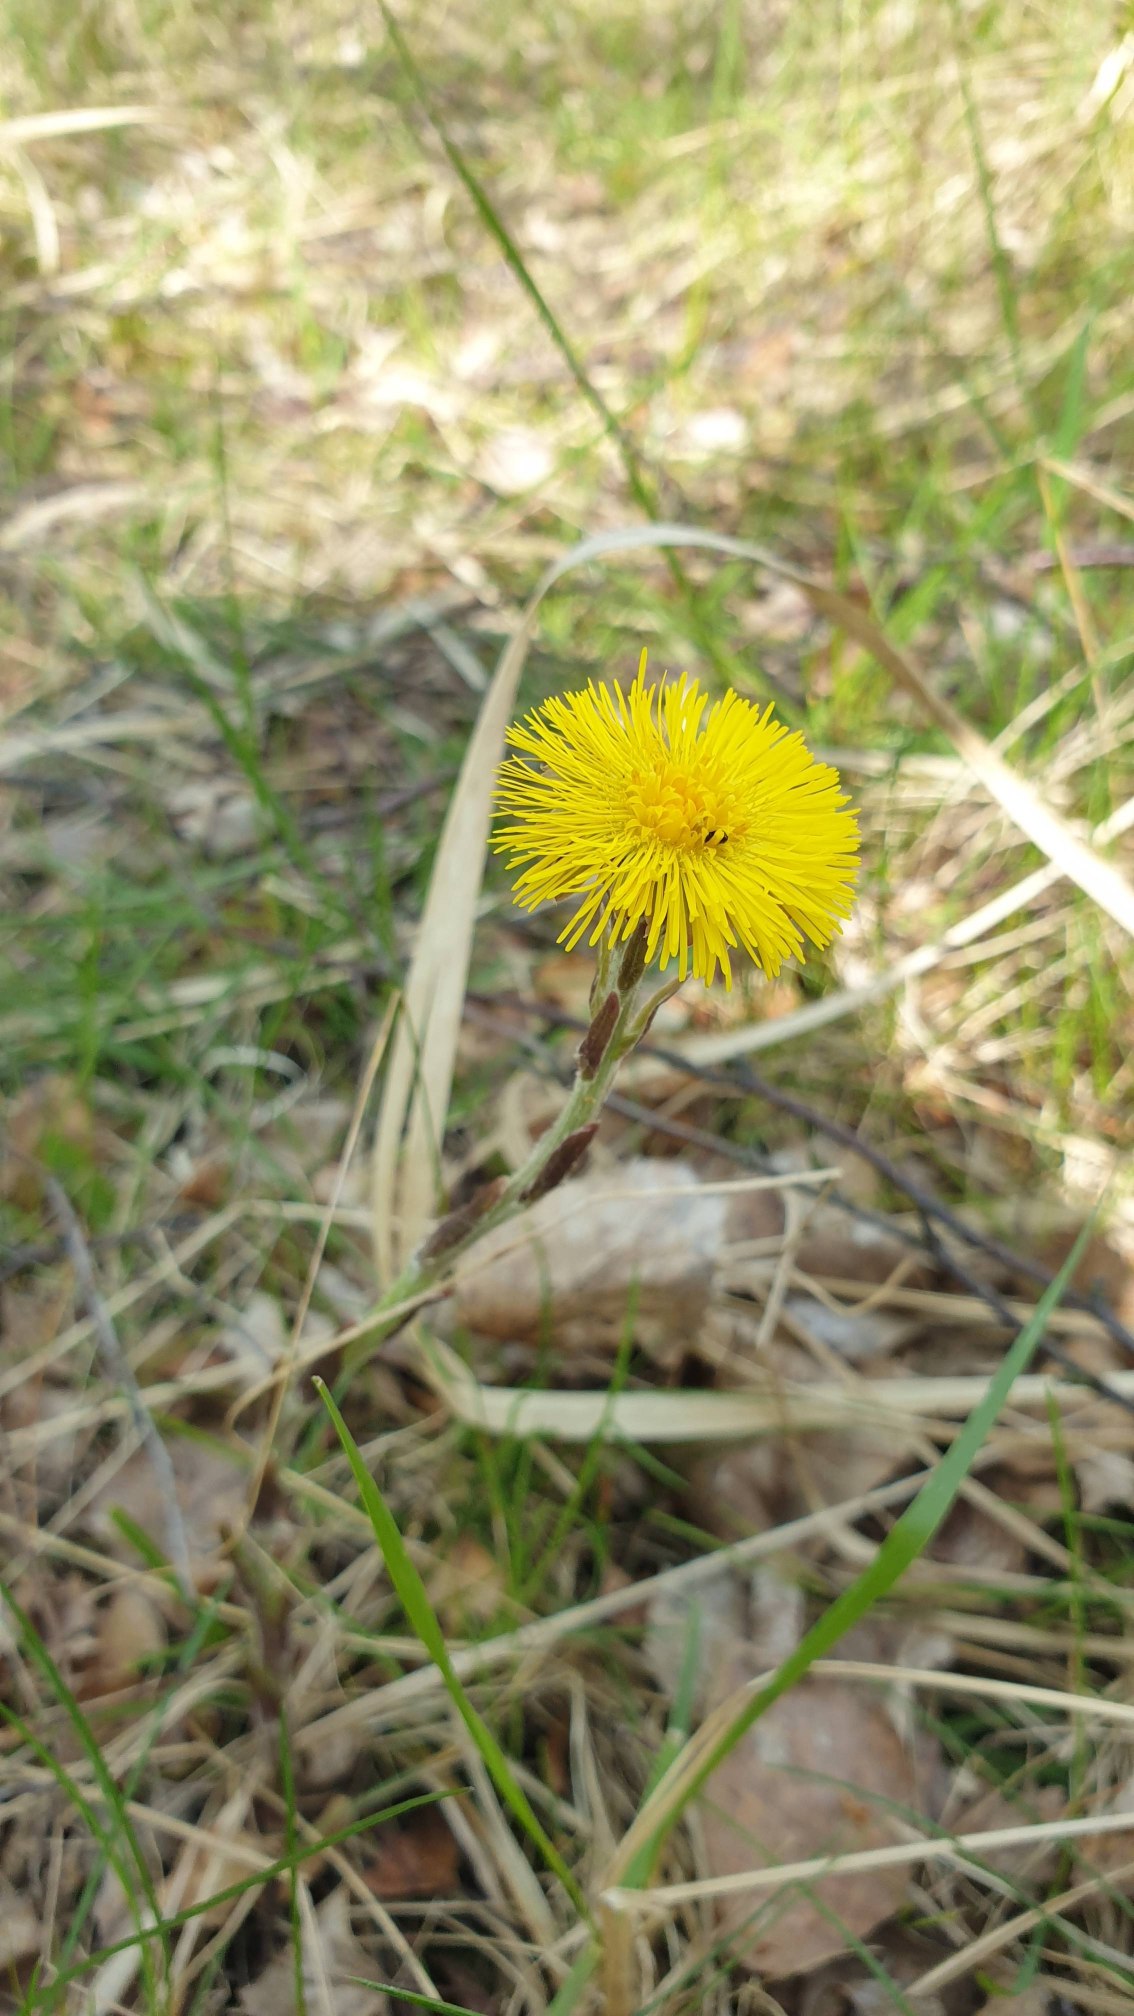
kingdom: Plantae
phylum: Tracheophyta
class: Magnoliopsida
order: Asterales
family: Asteraceae
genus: Tussilago
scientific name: Tussilago farfara
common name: Følfod
